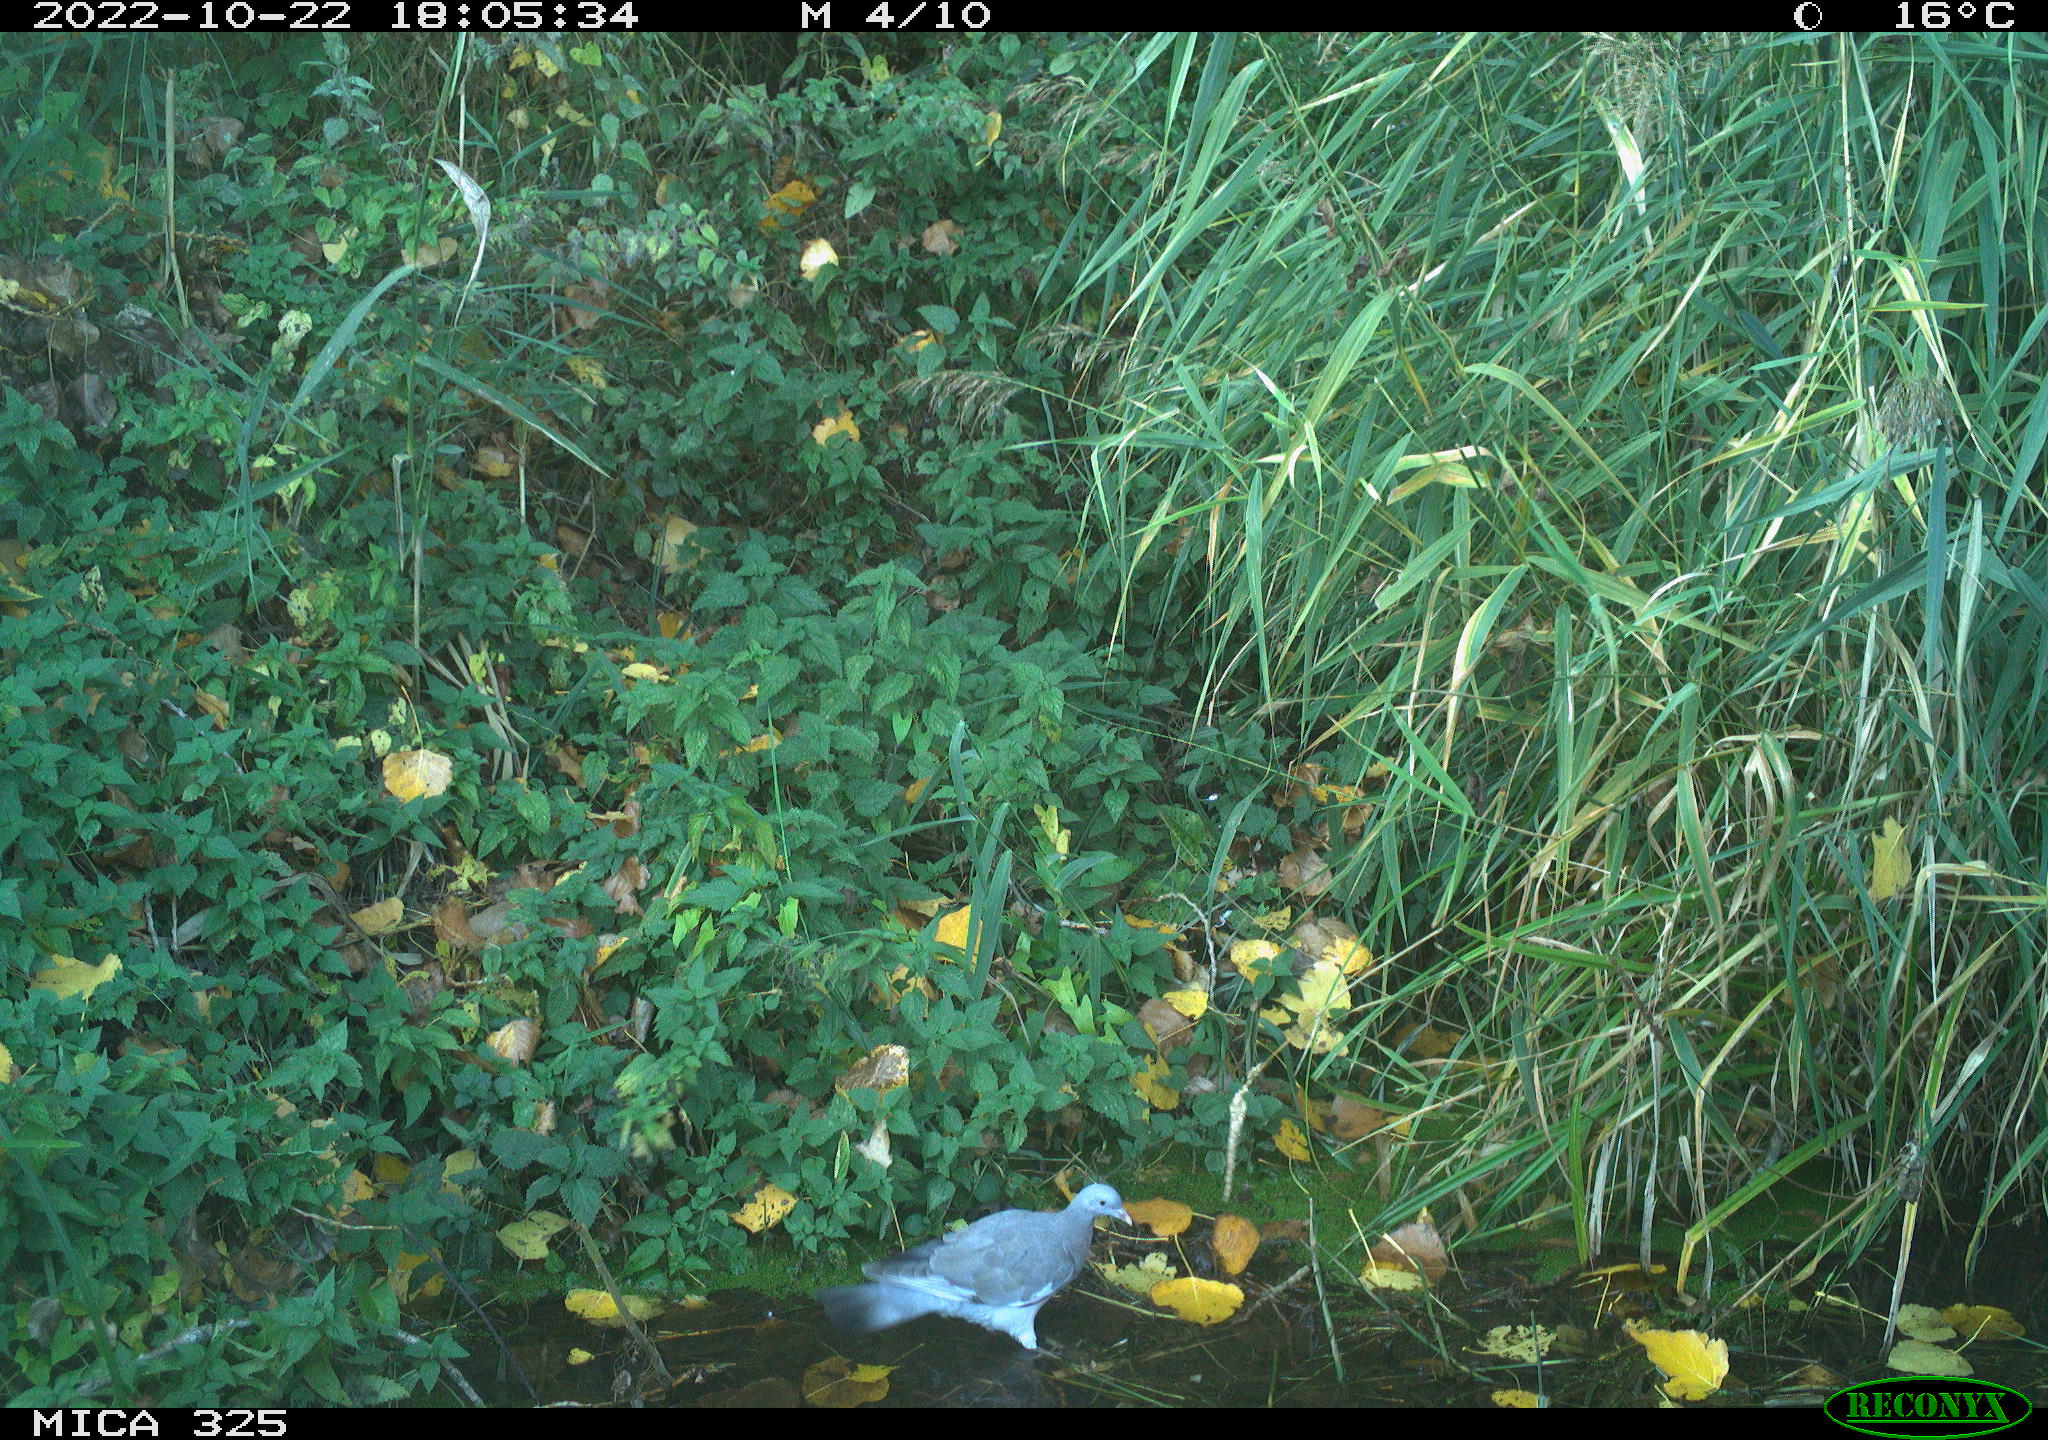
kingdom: Animalia
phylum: Chordata
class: Aves
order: Columbiformes
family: Columbidae
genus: Columba
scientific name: Columba palumbus
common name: Common wood pigeon
